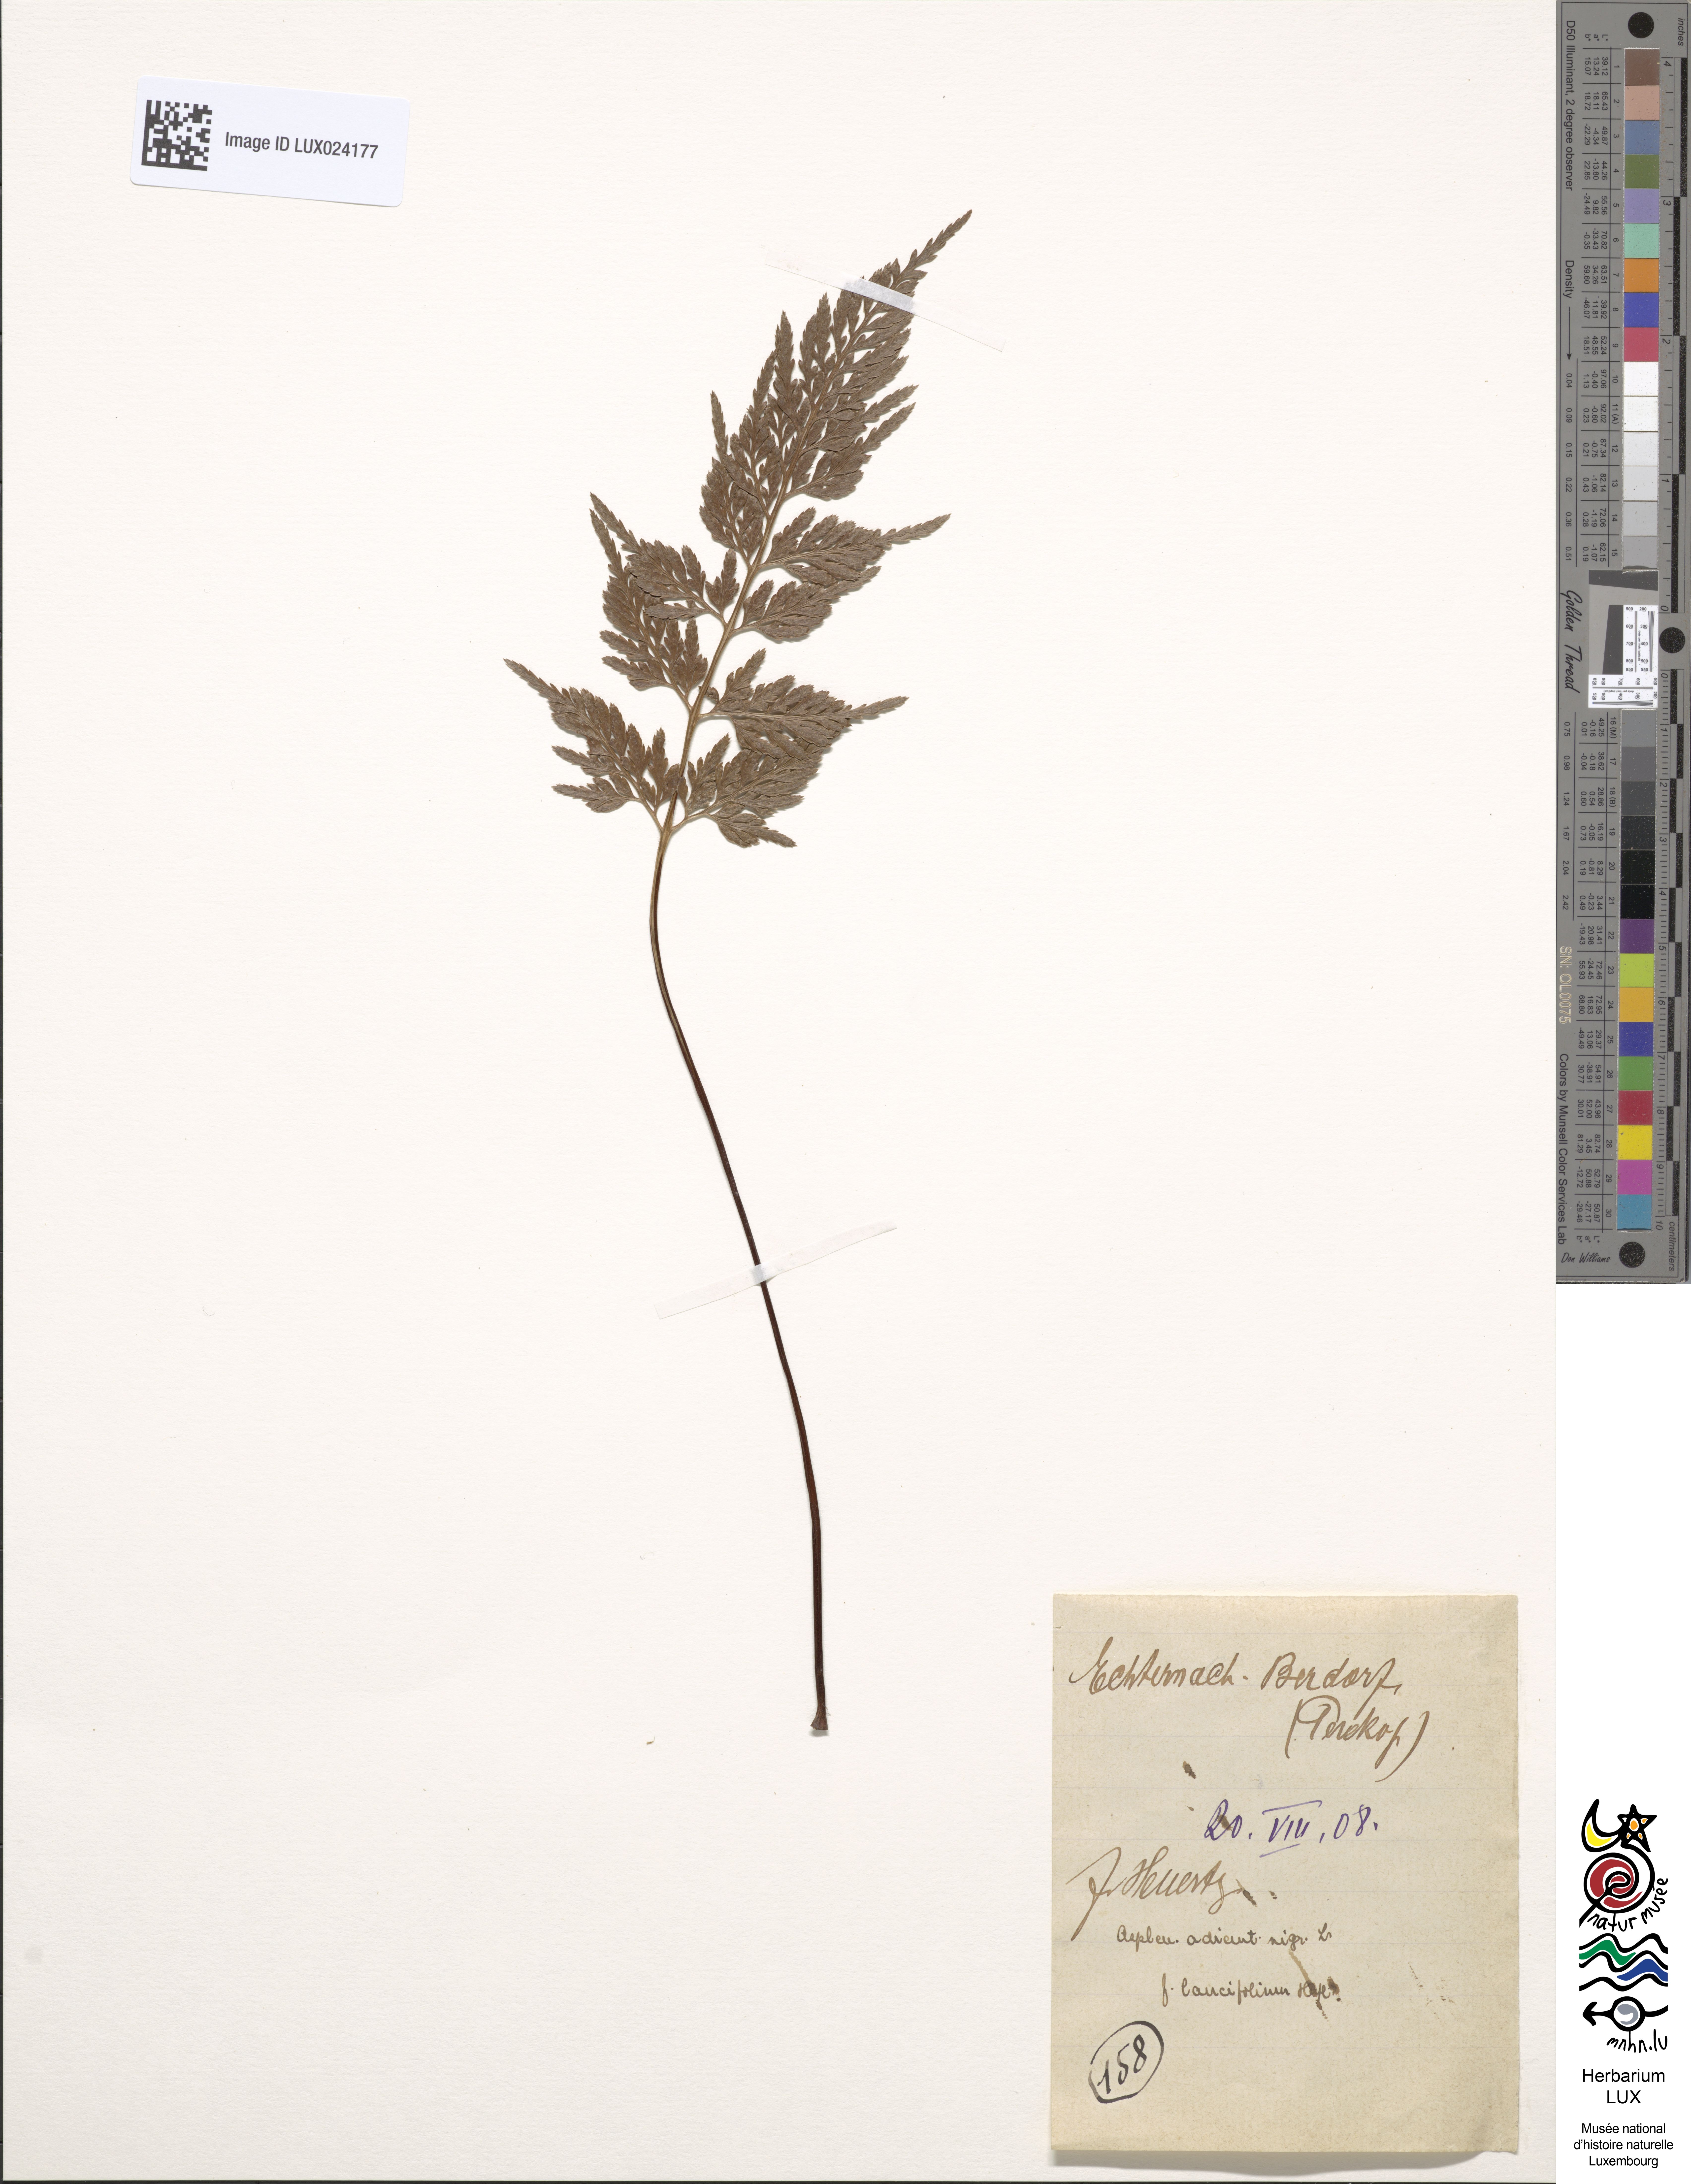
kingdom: Plantae
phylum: Tracheophyta
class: Polypodiopsida
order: Polypodiales
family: Aspleniaceae
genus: Asplenium
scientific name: Asplenium adiantum-nigrum
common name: Black spleenwort
